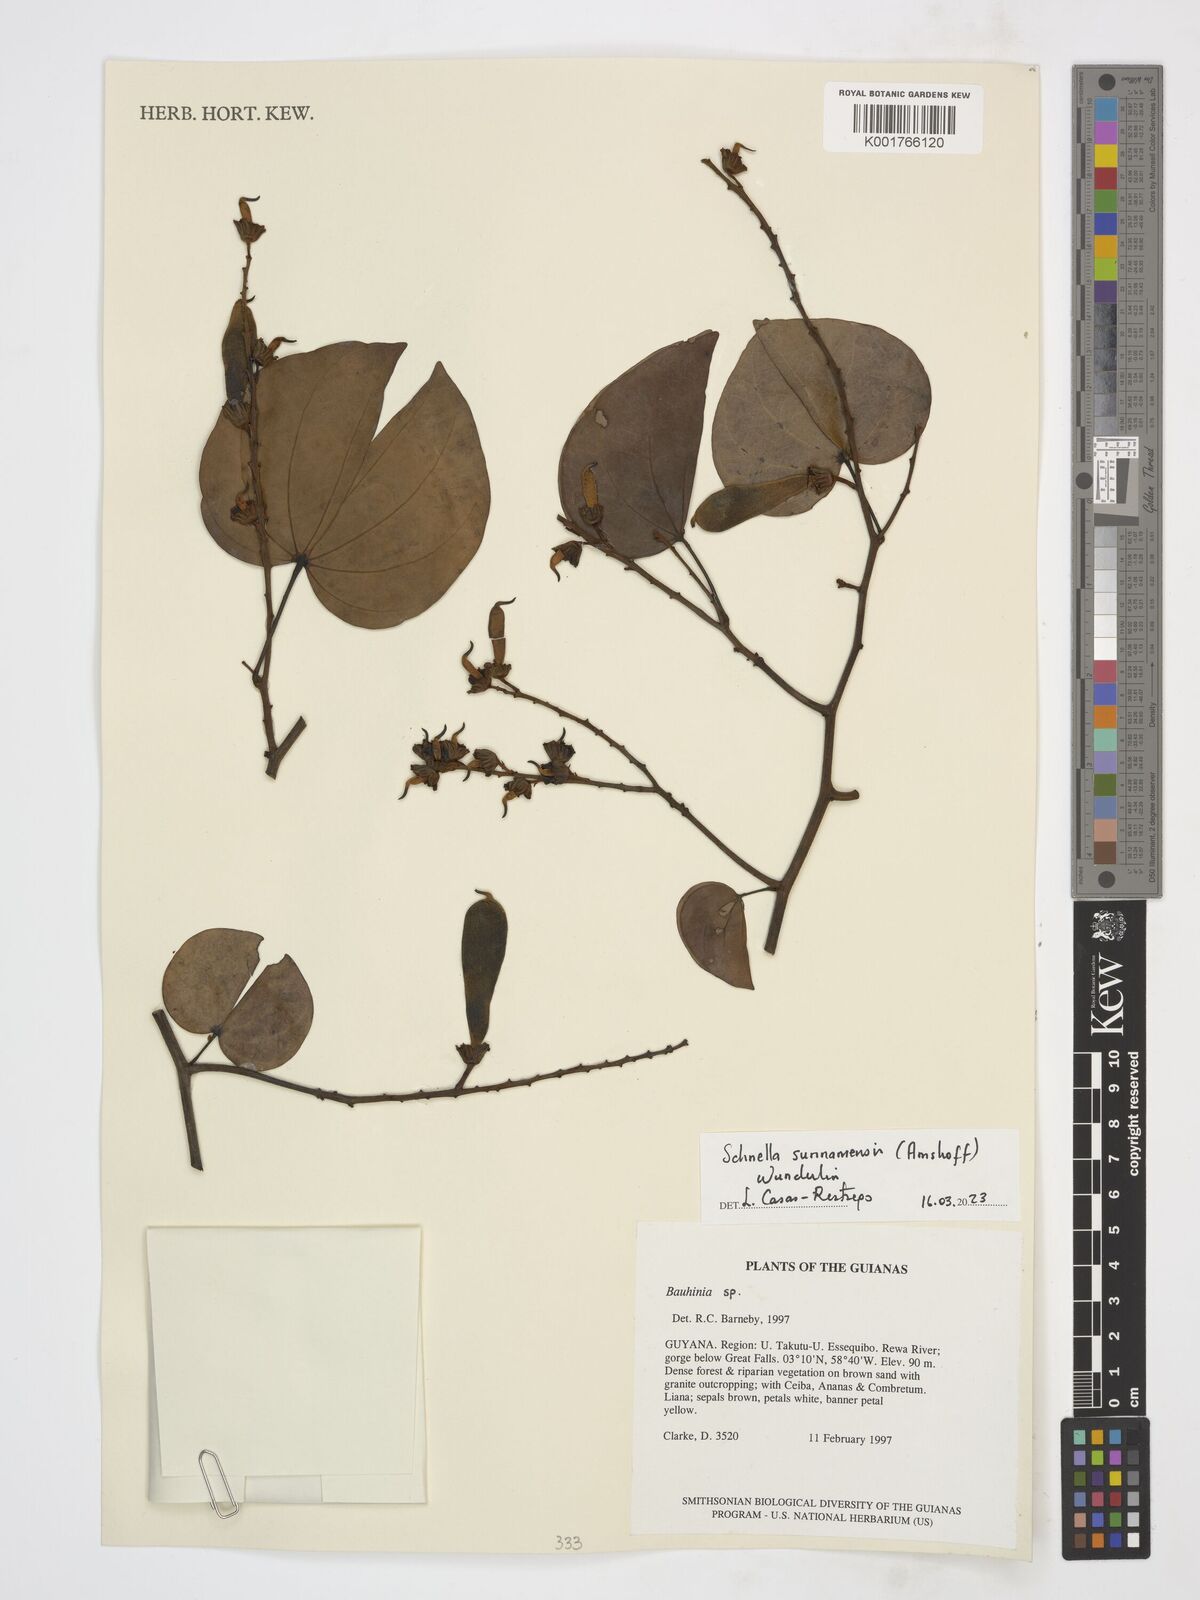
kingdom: Plantae
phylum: Tracheophyta
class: Magnoliopsida
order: Fabales
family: Fabaceae
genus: Schnella
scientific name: Schnella surinamensis
